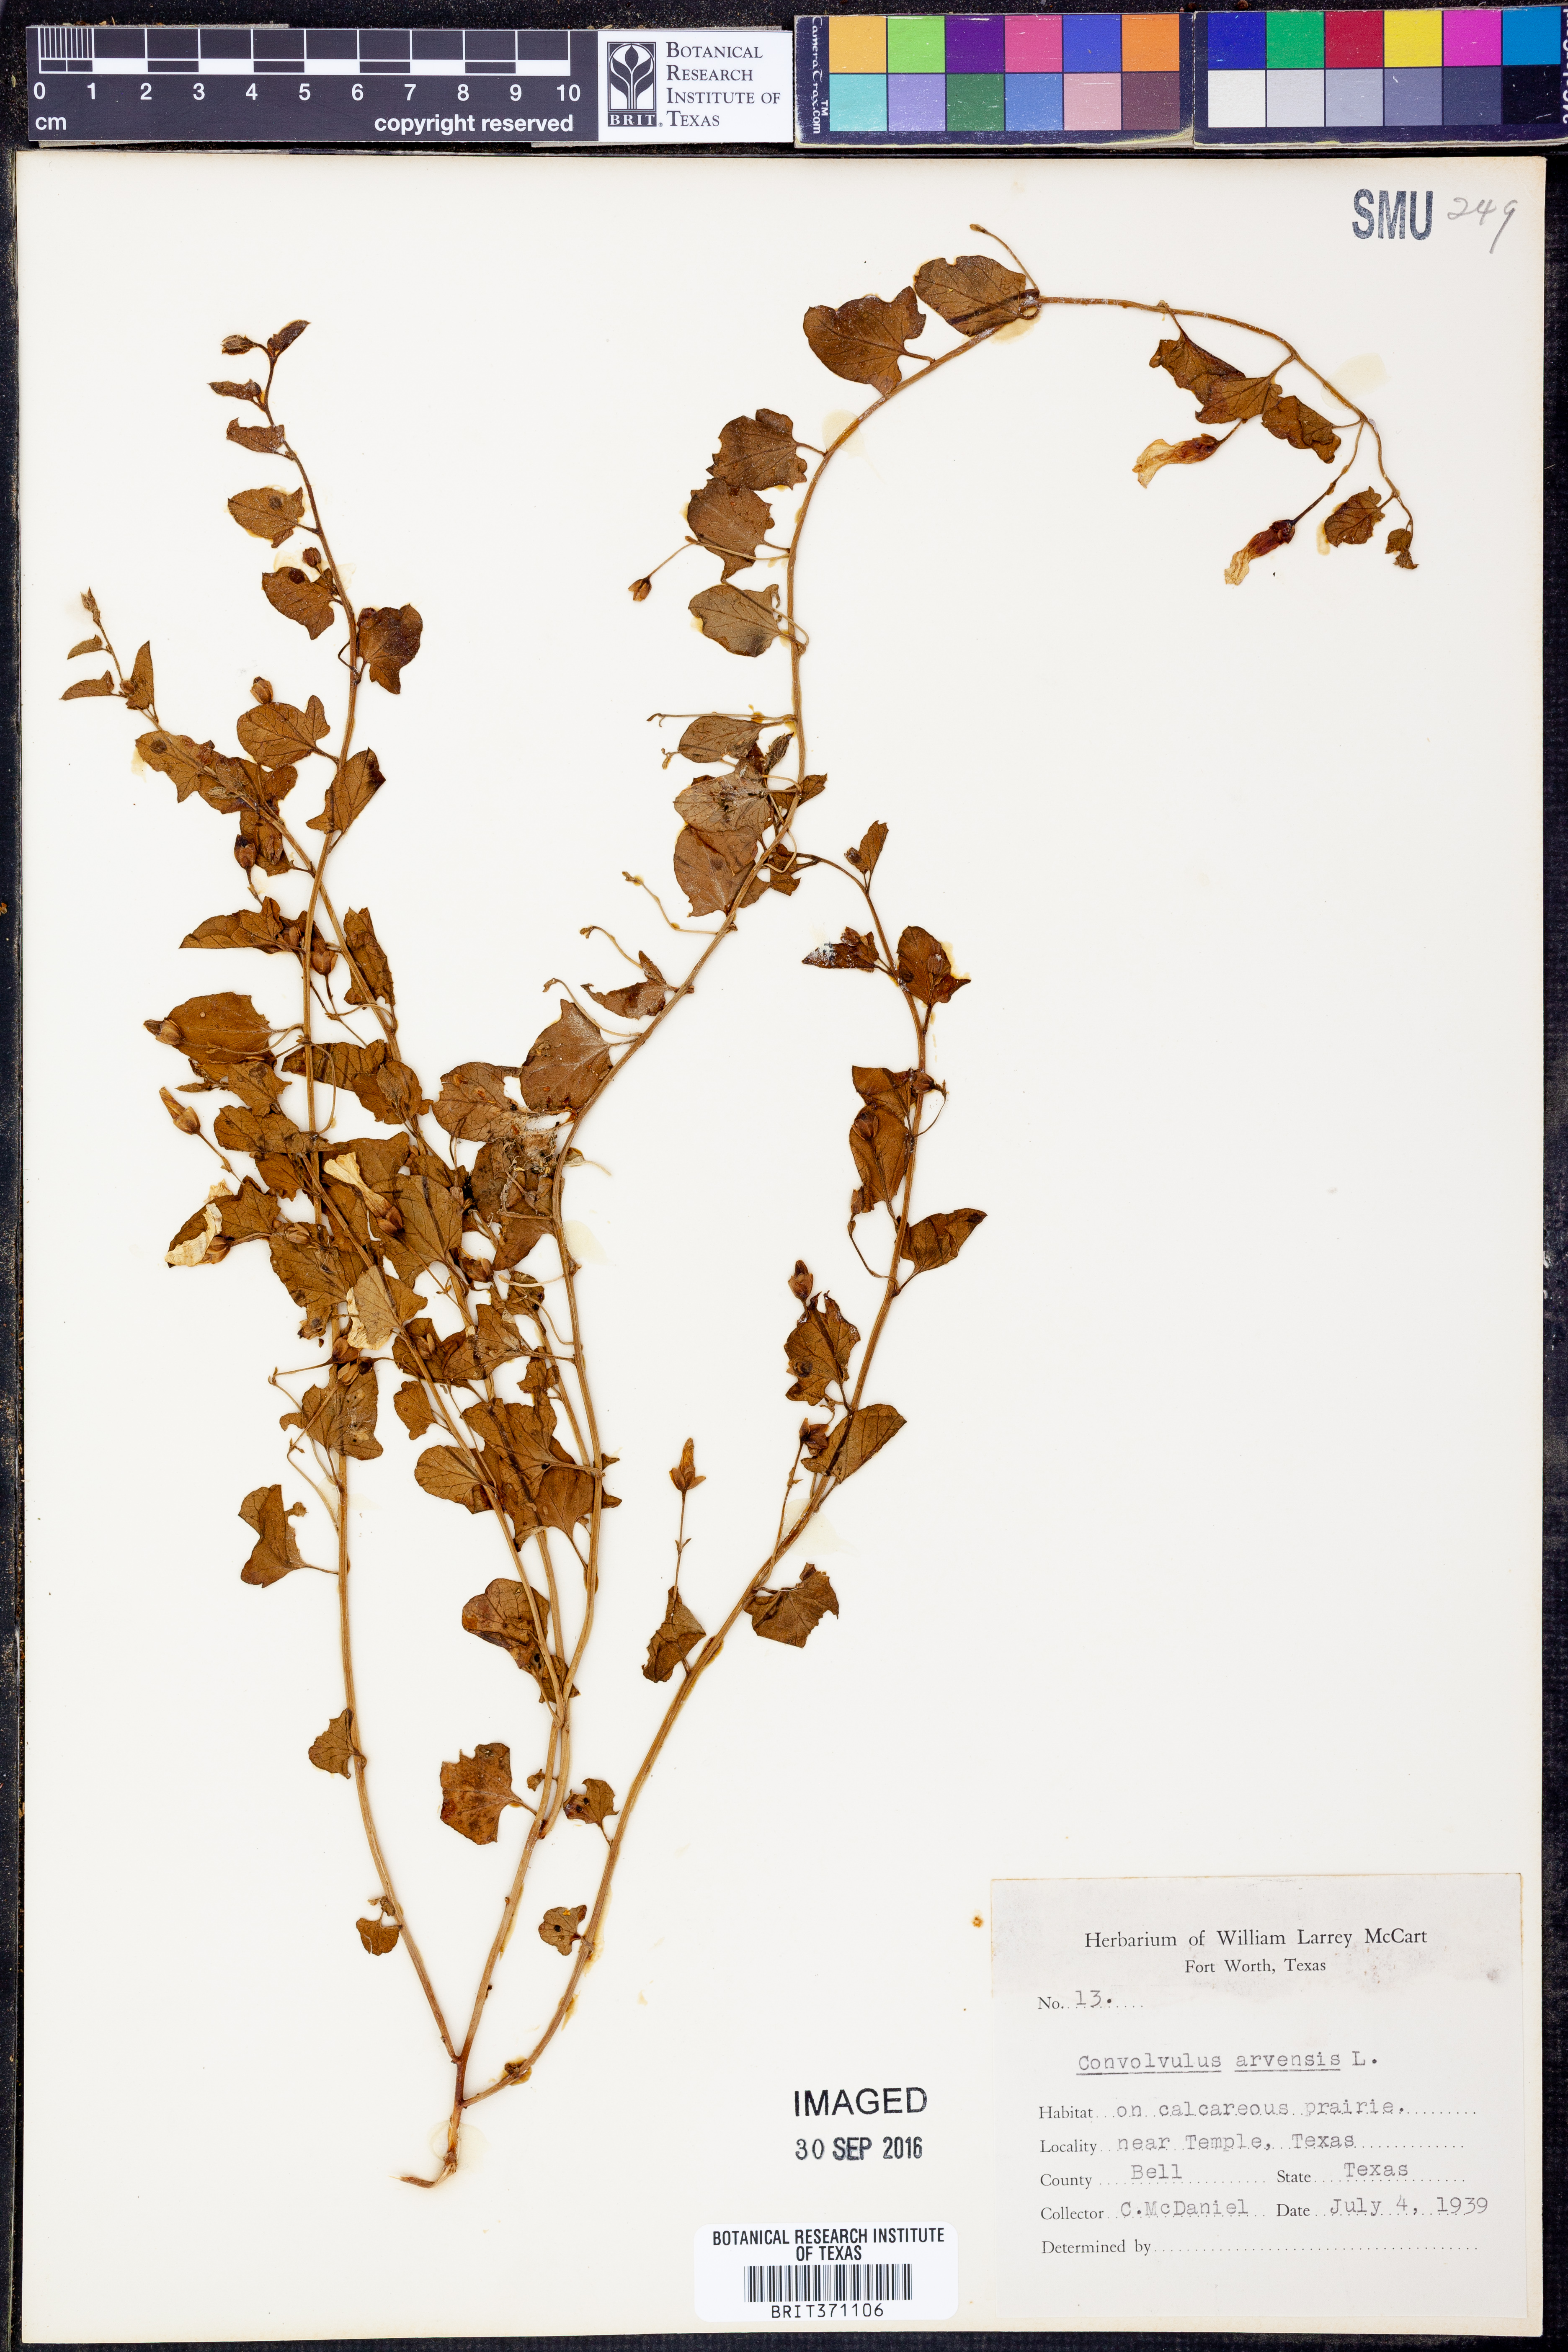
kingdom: Plantae
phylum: Tracheophyta
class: Magnoliopsida
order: Solanales
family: Convolvulaceae
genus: Convolvulus
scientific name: Convolvulus arvensis
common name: Field bindweed
